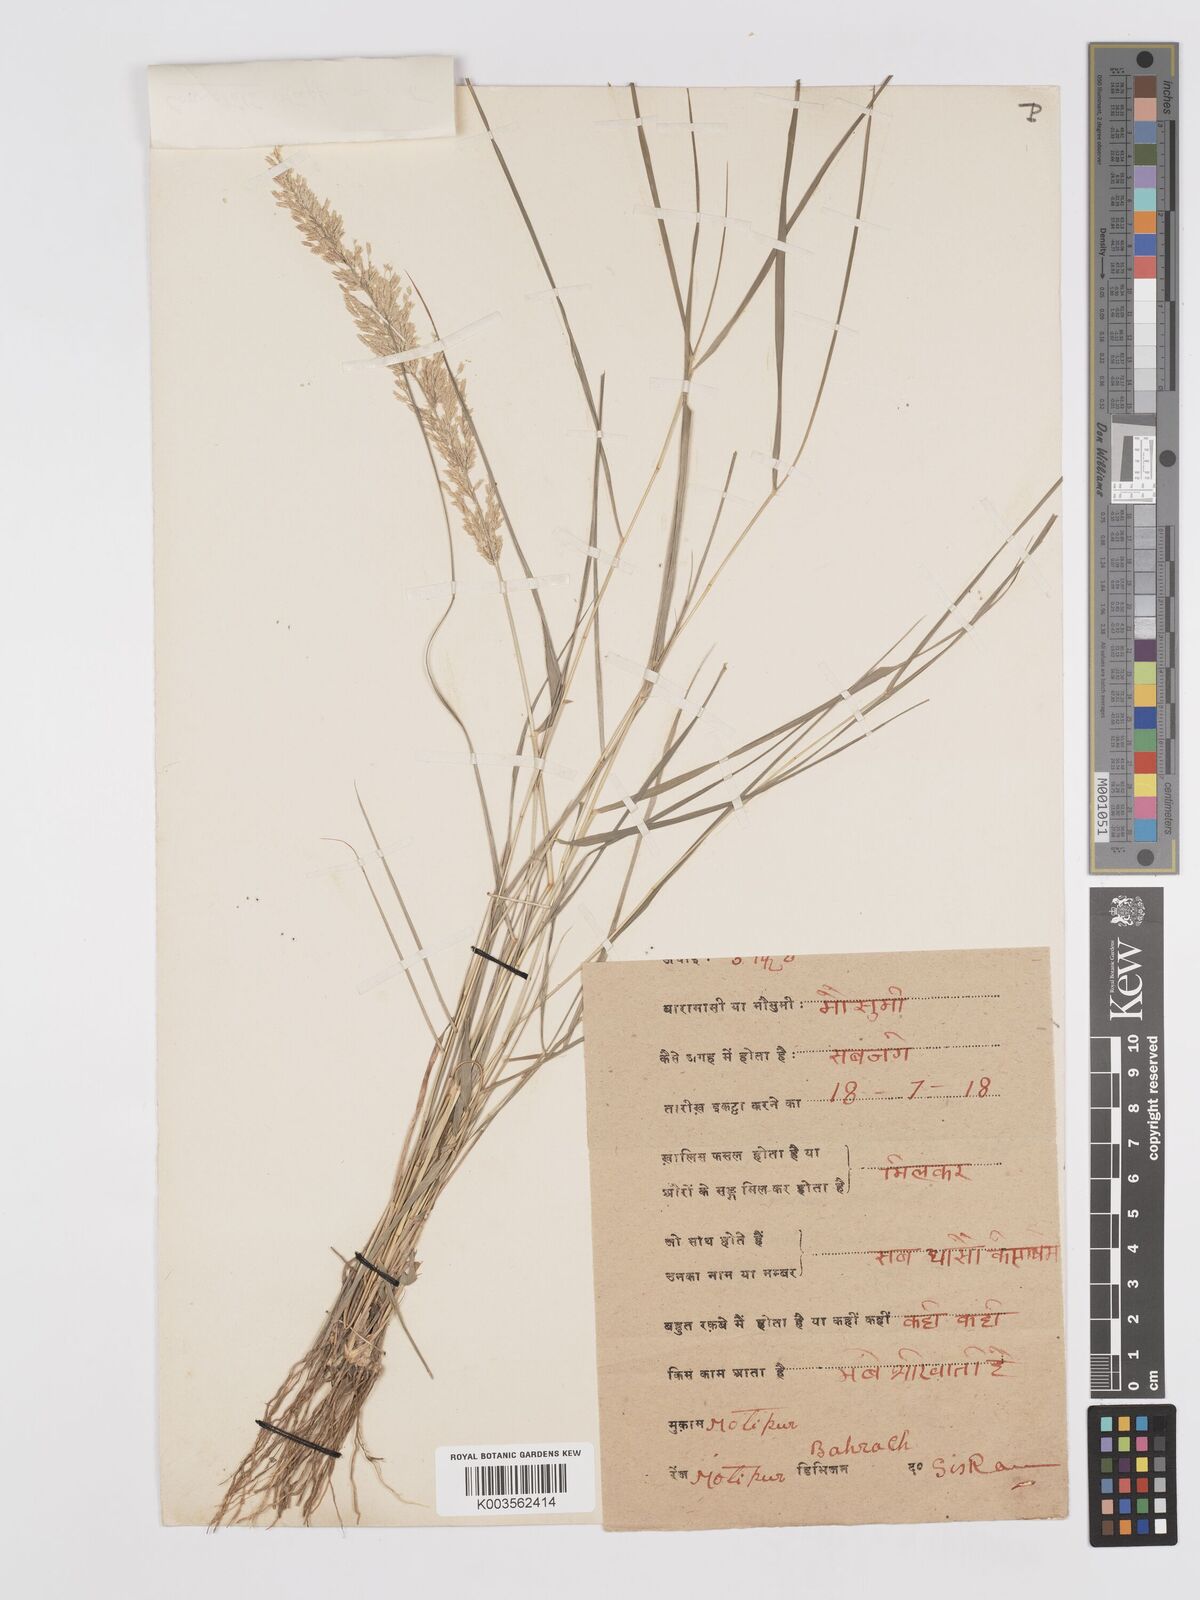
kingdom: Plantae
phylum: Tracheophyta
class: Liliopsida
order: Poales
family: Poaceae
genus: Eragrostis
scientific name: Eragrostis coarctata
